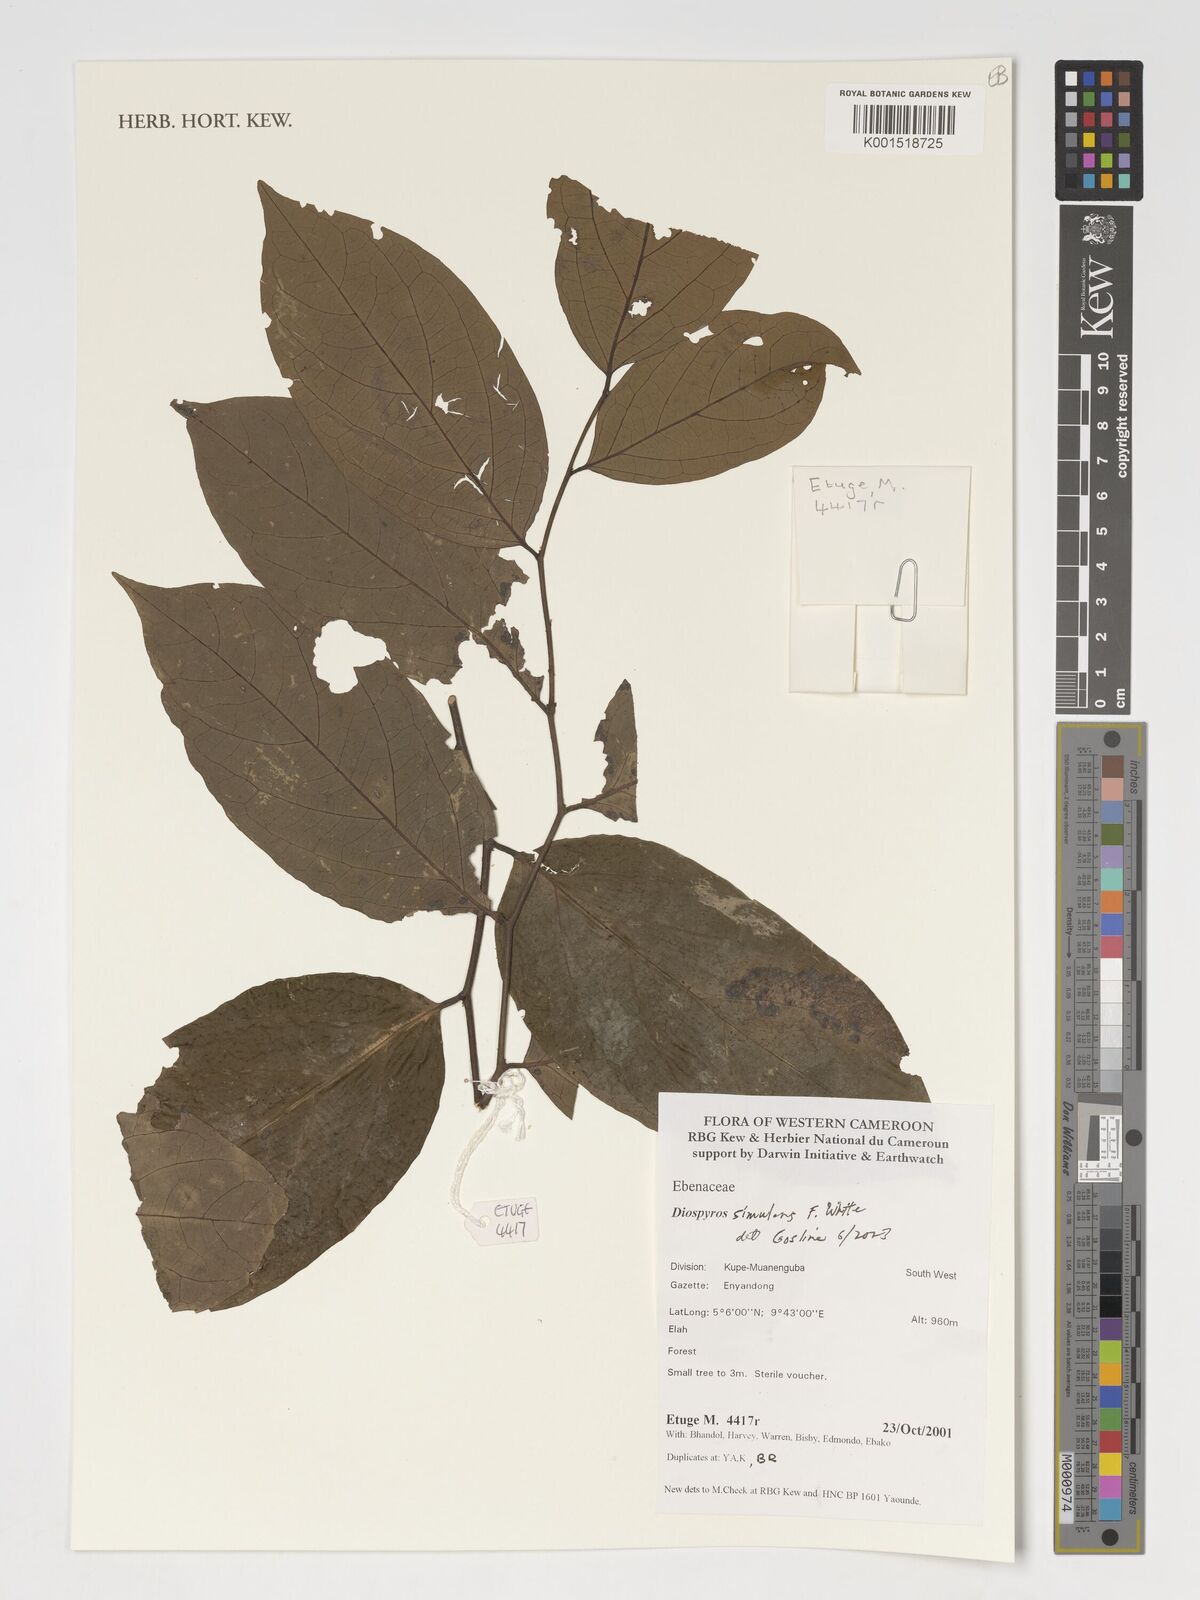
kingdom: Plantae
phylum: Tracheophyta
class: Magnoliopsida
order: Ericales
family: Ebenaceae
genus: Diospyros
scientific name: Diospyros cinnabarina
